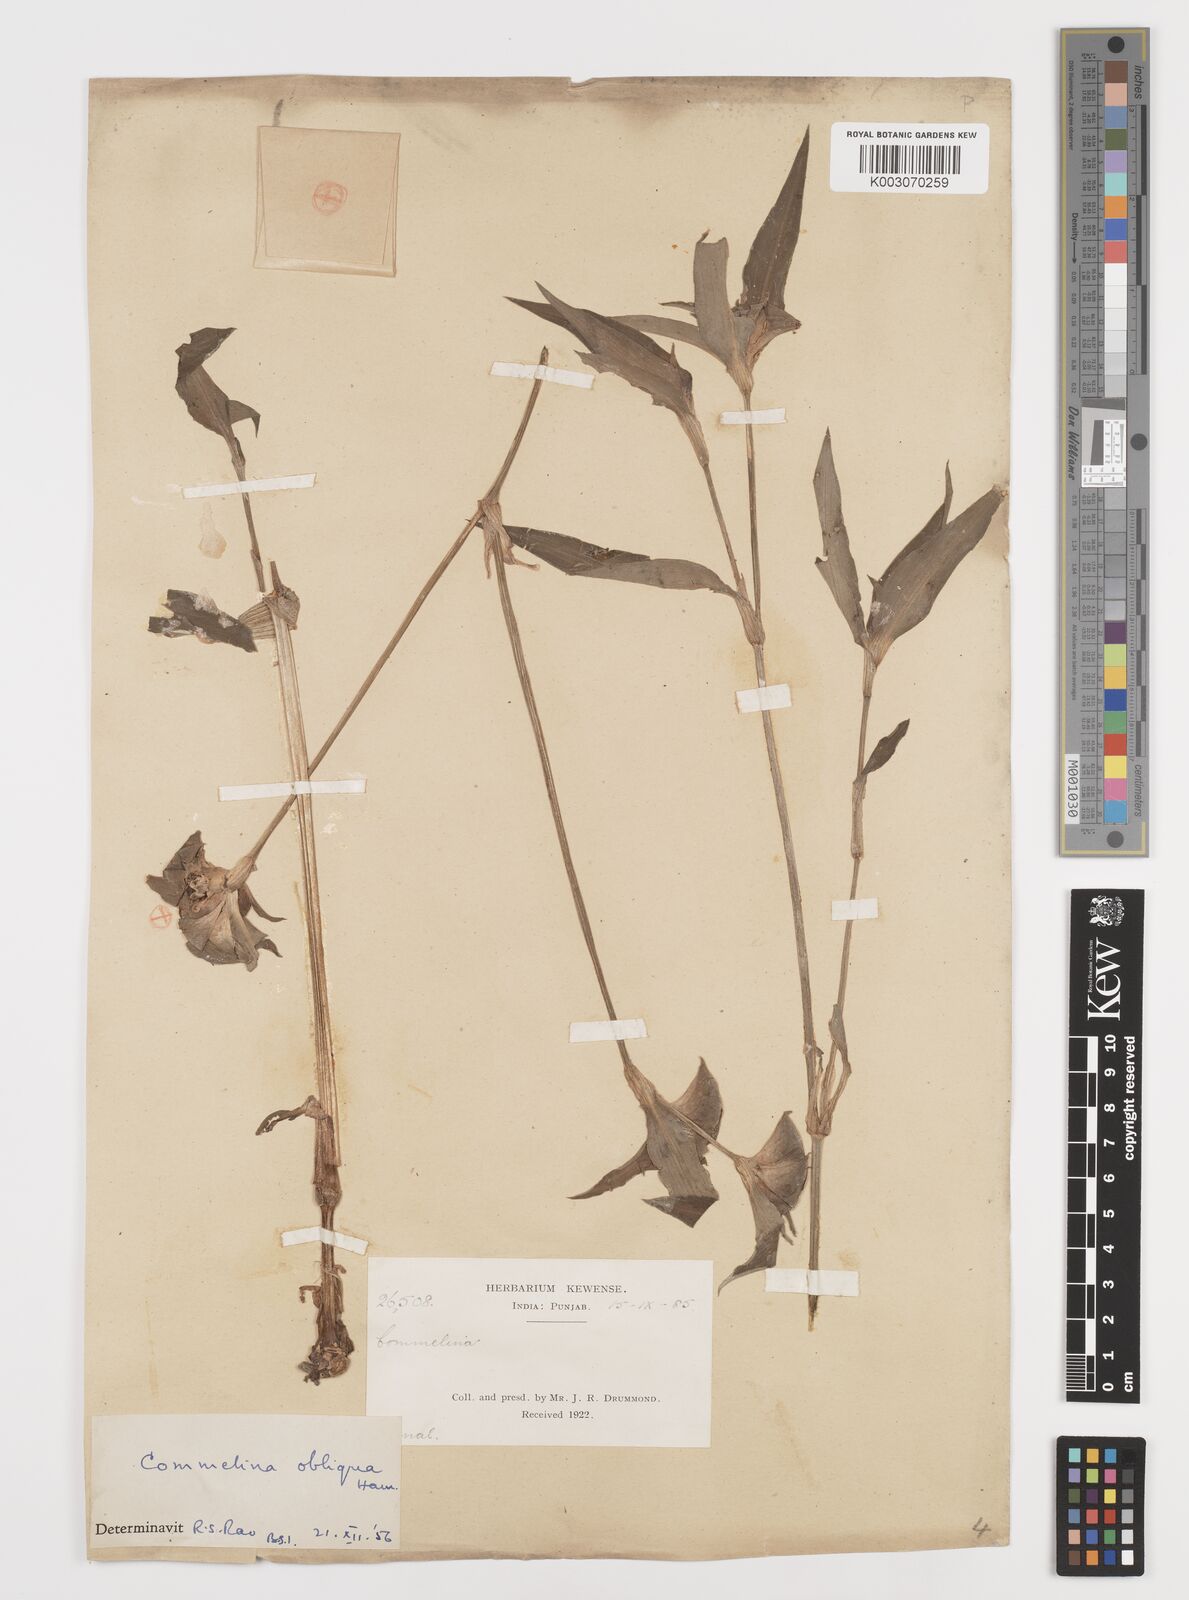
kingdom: Plantae
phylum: Tracheophyta
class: Liliopsida
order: Commelinales
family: Commelinaceae
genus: Commelina
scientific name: Commelina paludosa
